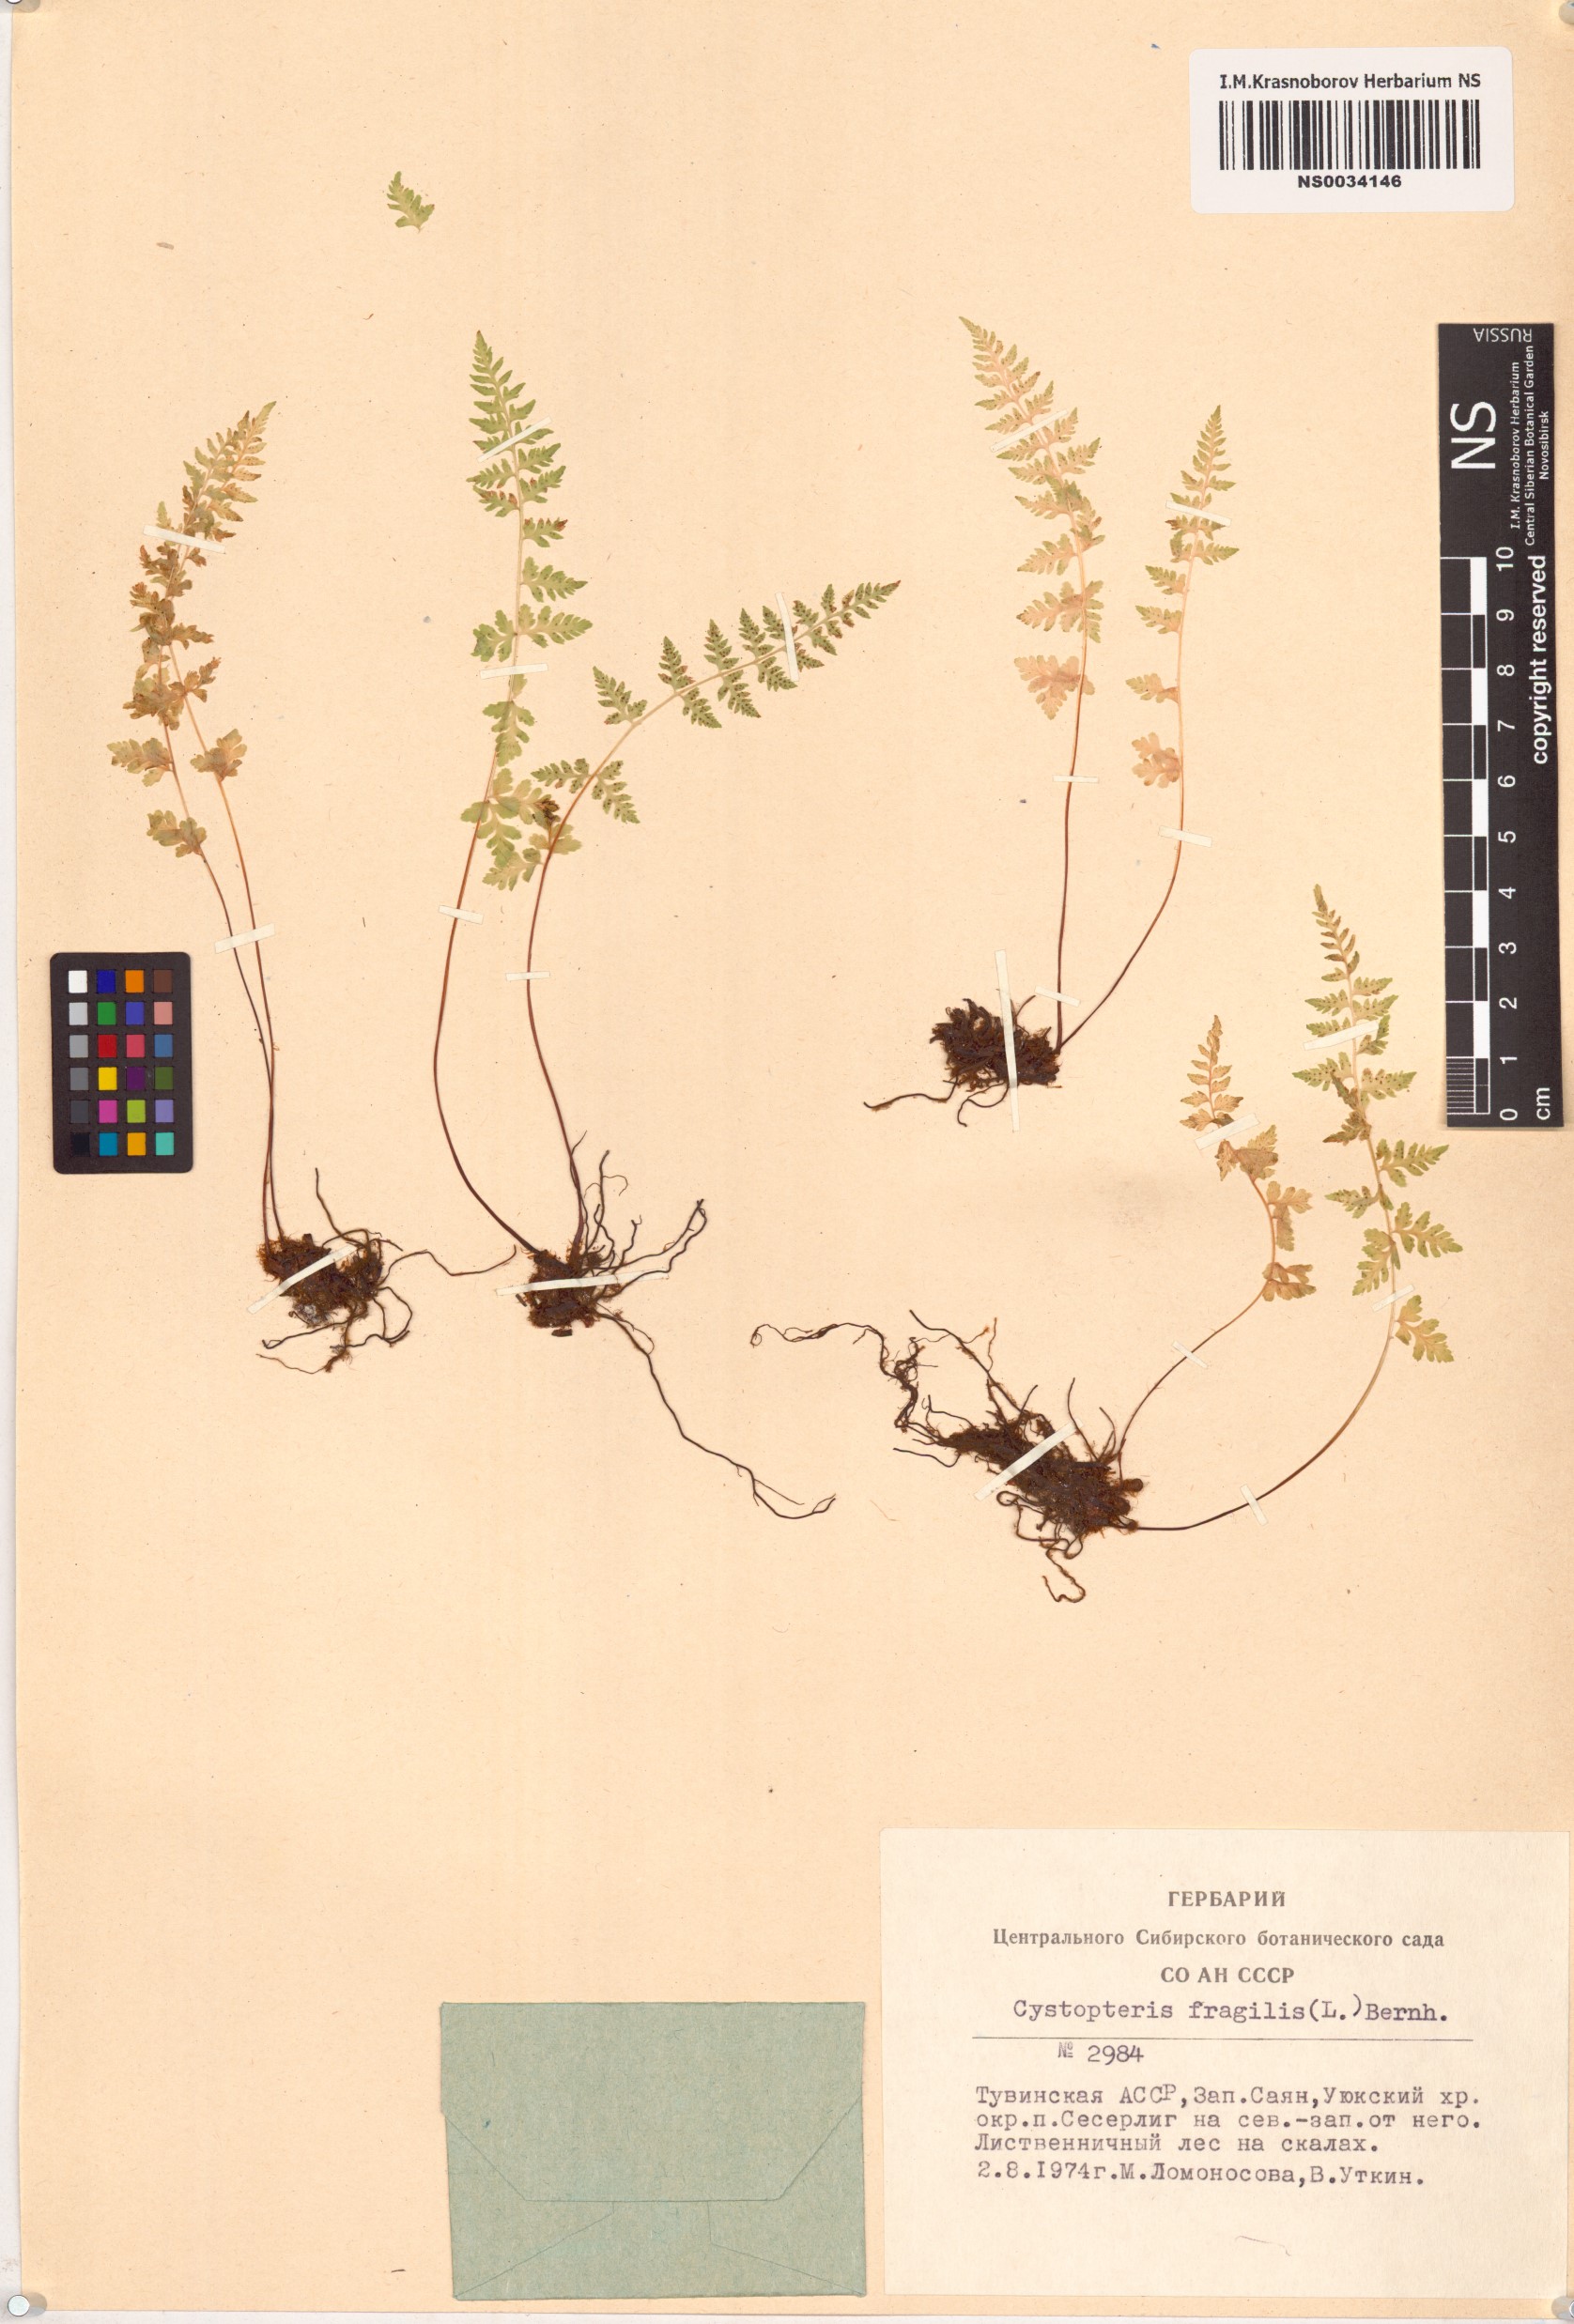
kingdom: Plantae
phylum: Tracheophyta
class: Polypodiopsida
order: Polypodiales
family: Cystopteridaceae
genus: Cystopteris
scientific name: Cystopteris fragilis
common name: Brittle bladder fern
